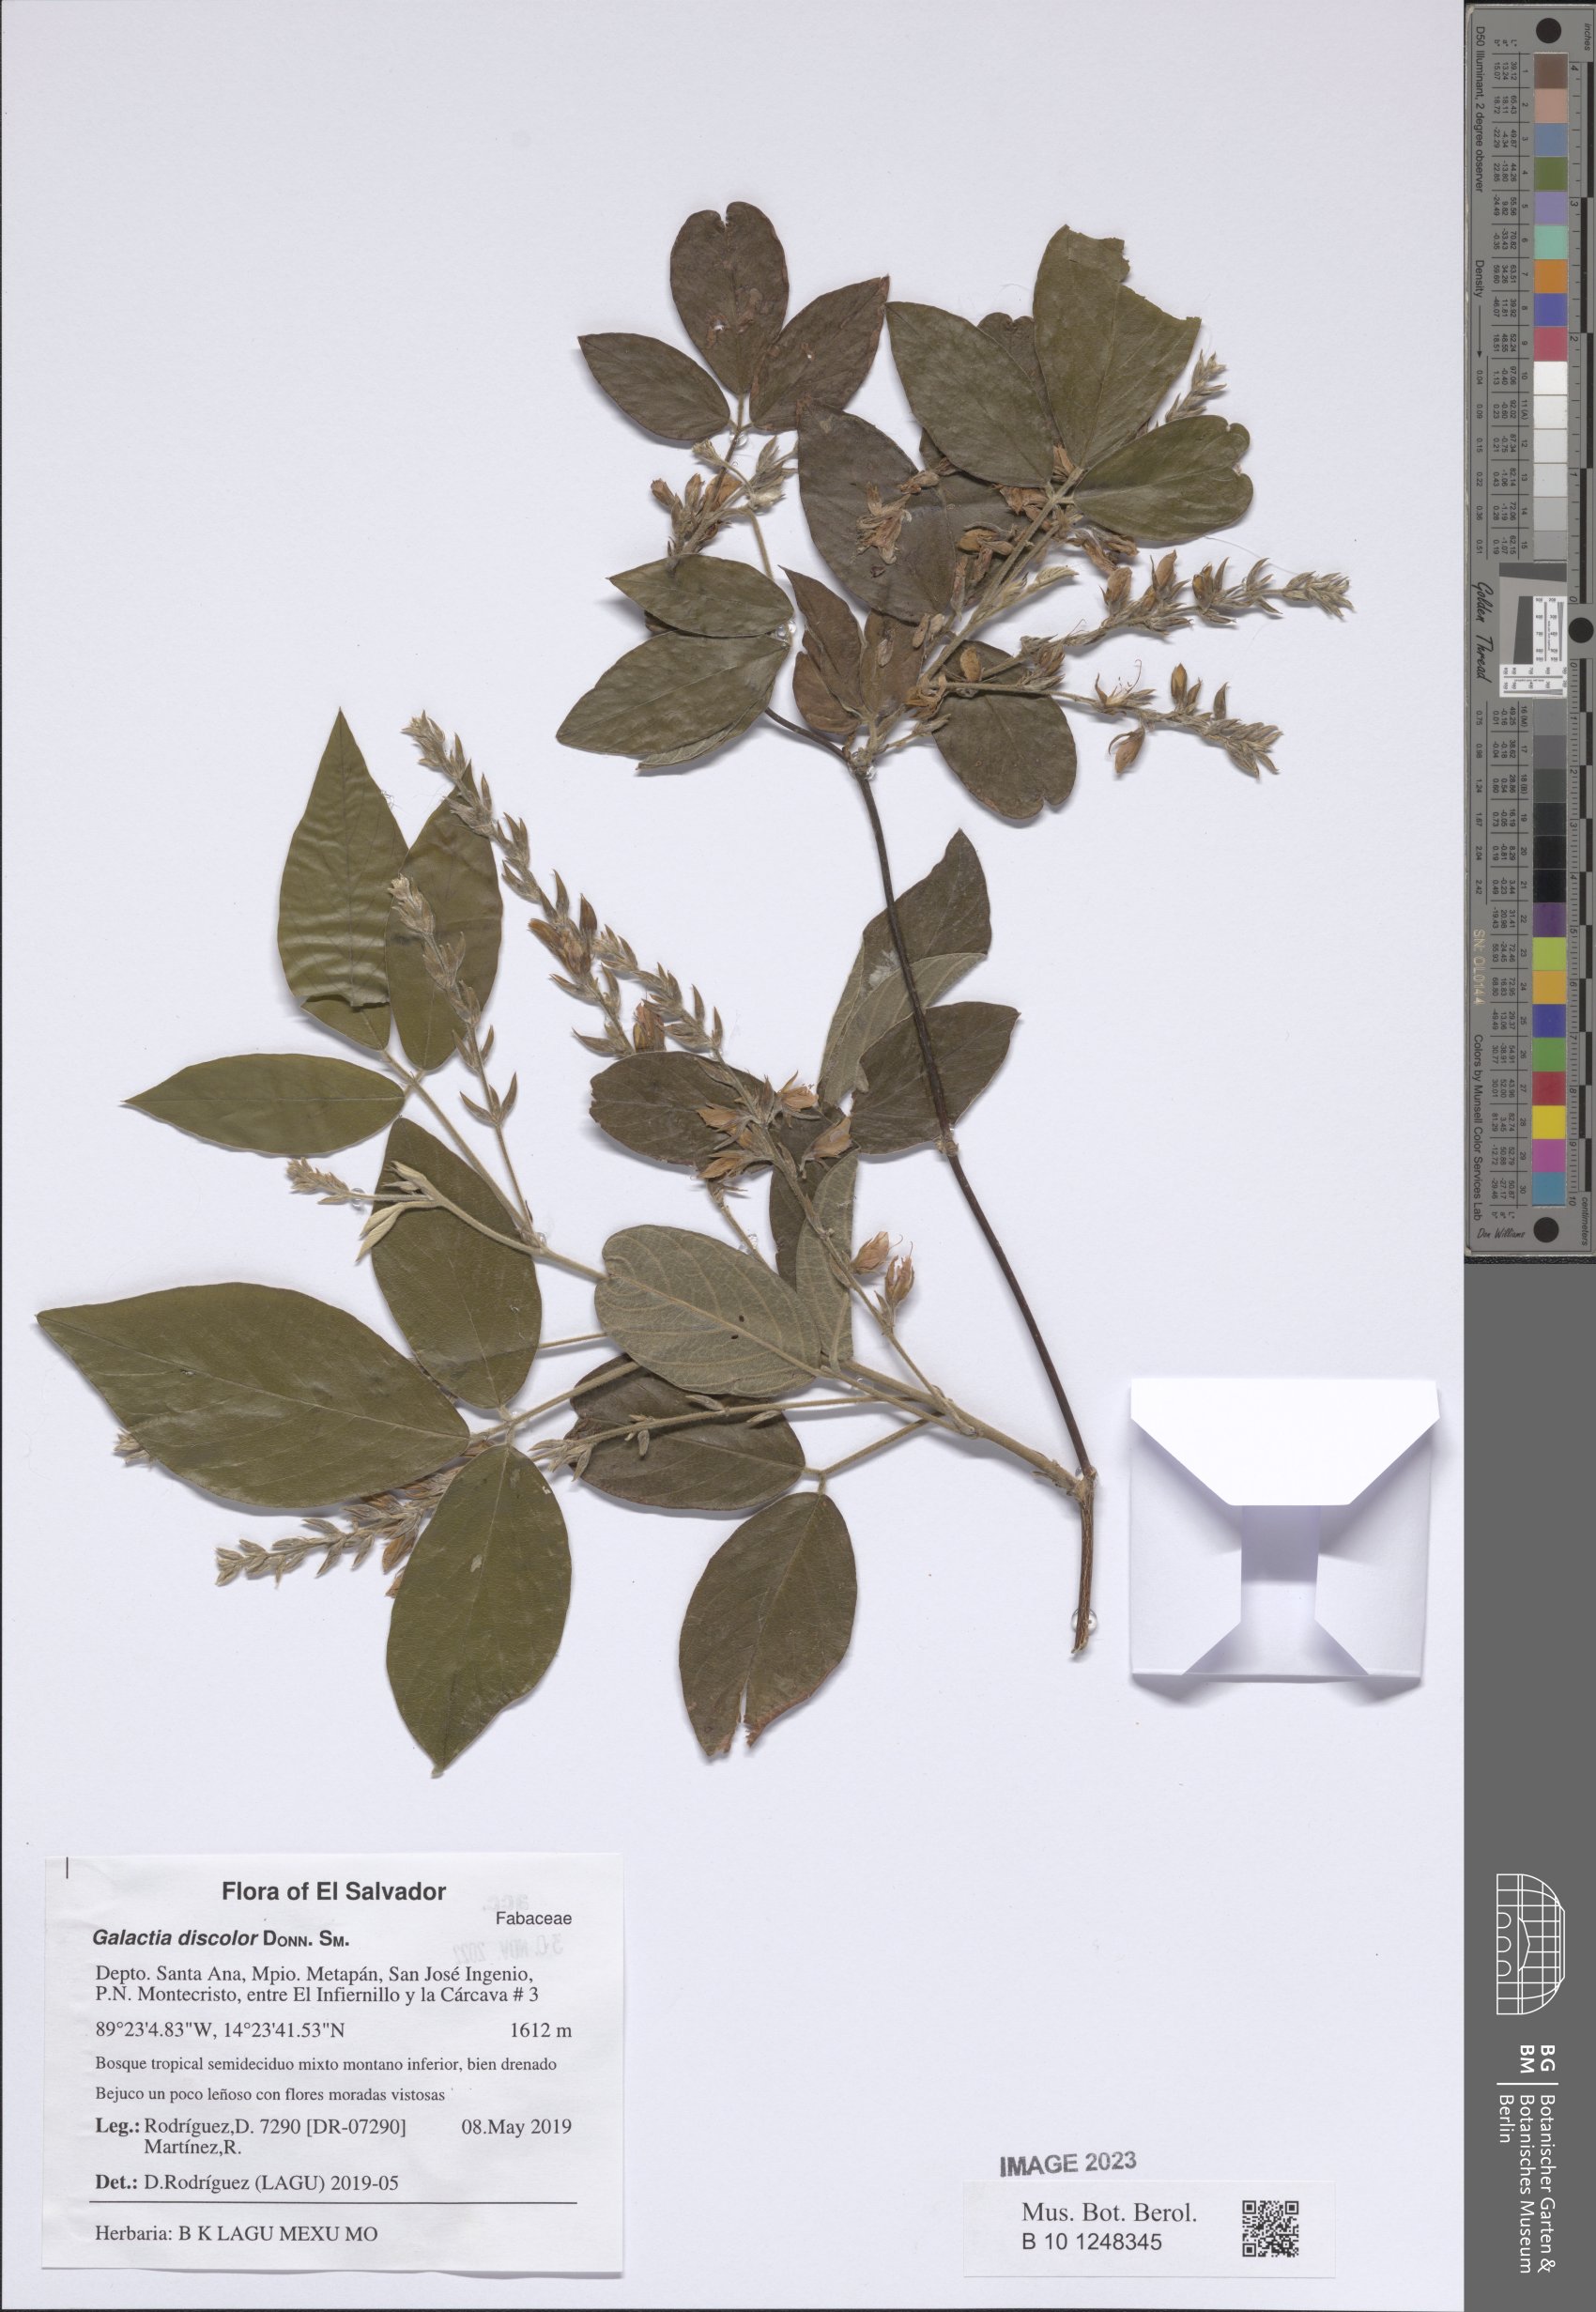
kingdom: Plantae
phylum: Tracheophyta
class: Magnoliopsida
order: Fabales
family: Fabaceae
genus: Galactia
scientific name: Galactia jussiaeana
